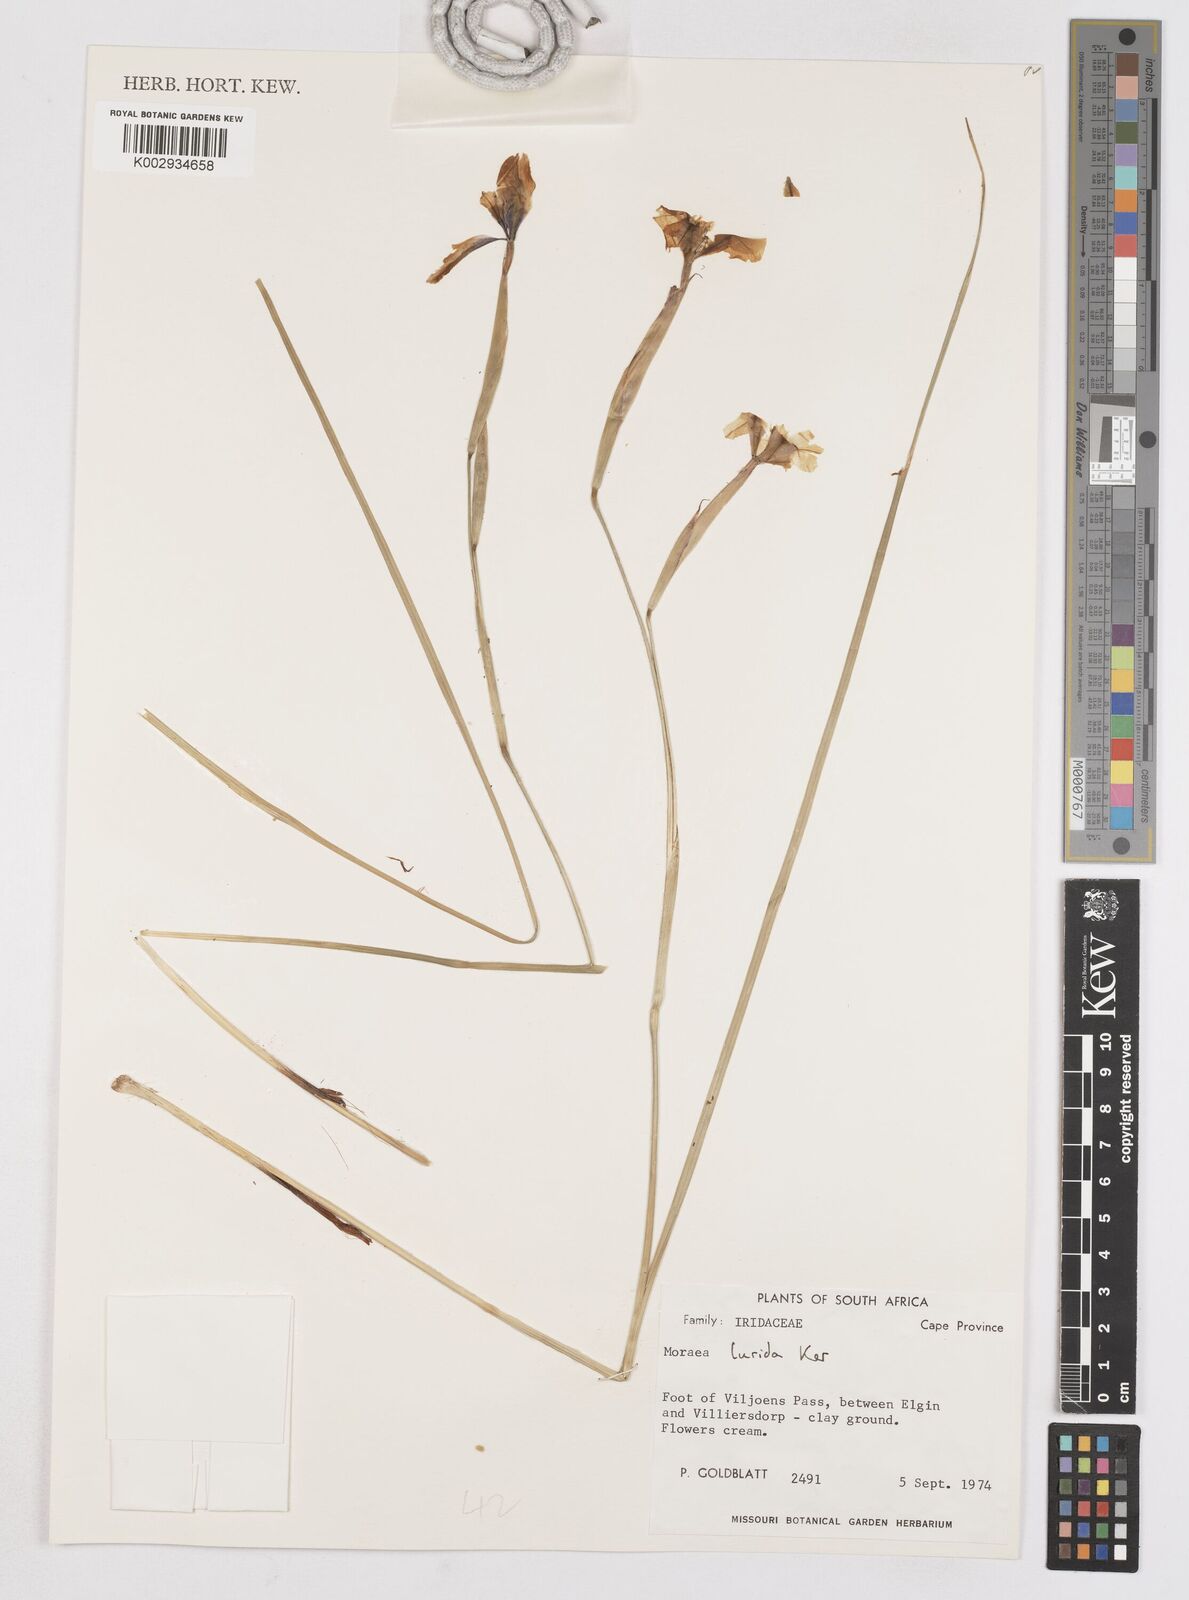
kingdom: Plantae
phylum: Tracheophyta
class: Liliopsida
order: Asparagales
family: Iridaceae
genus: Moraea
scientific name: Moraea lurida
